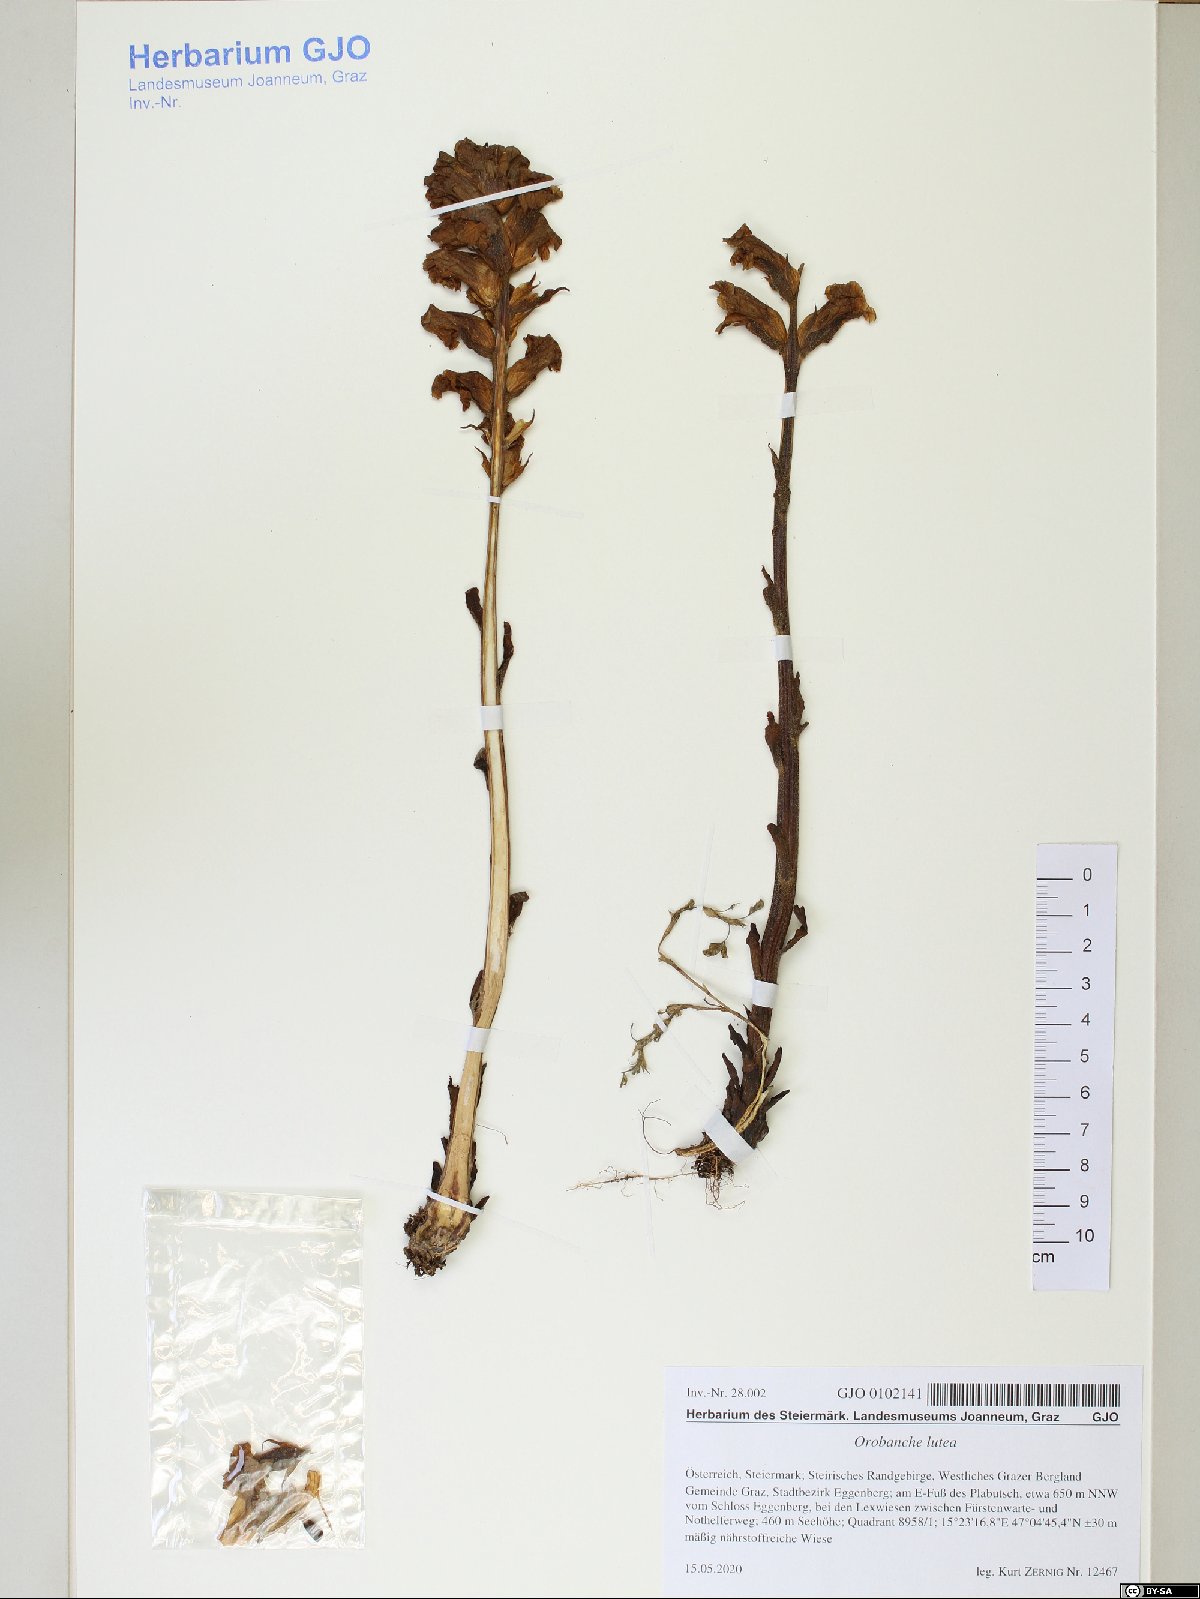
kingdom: Plantae
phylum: Tracheophyta
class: Magnoliopsida
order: Lamiales
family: Orobanchaceae
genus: Orobanche
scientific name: Orobanche lutea
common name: Yellow broomrape
